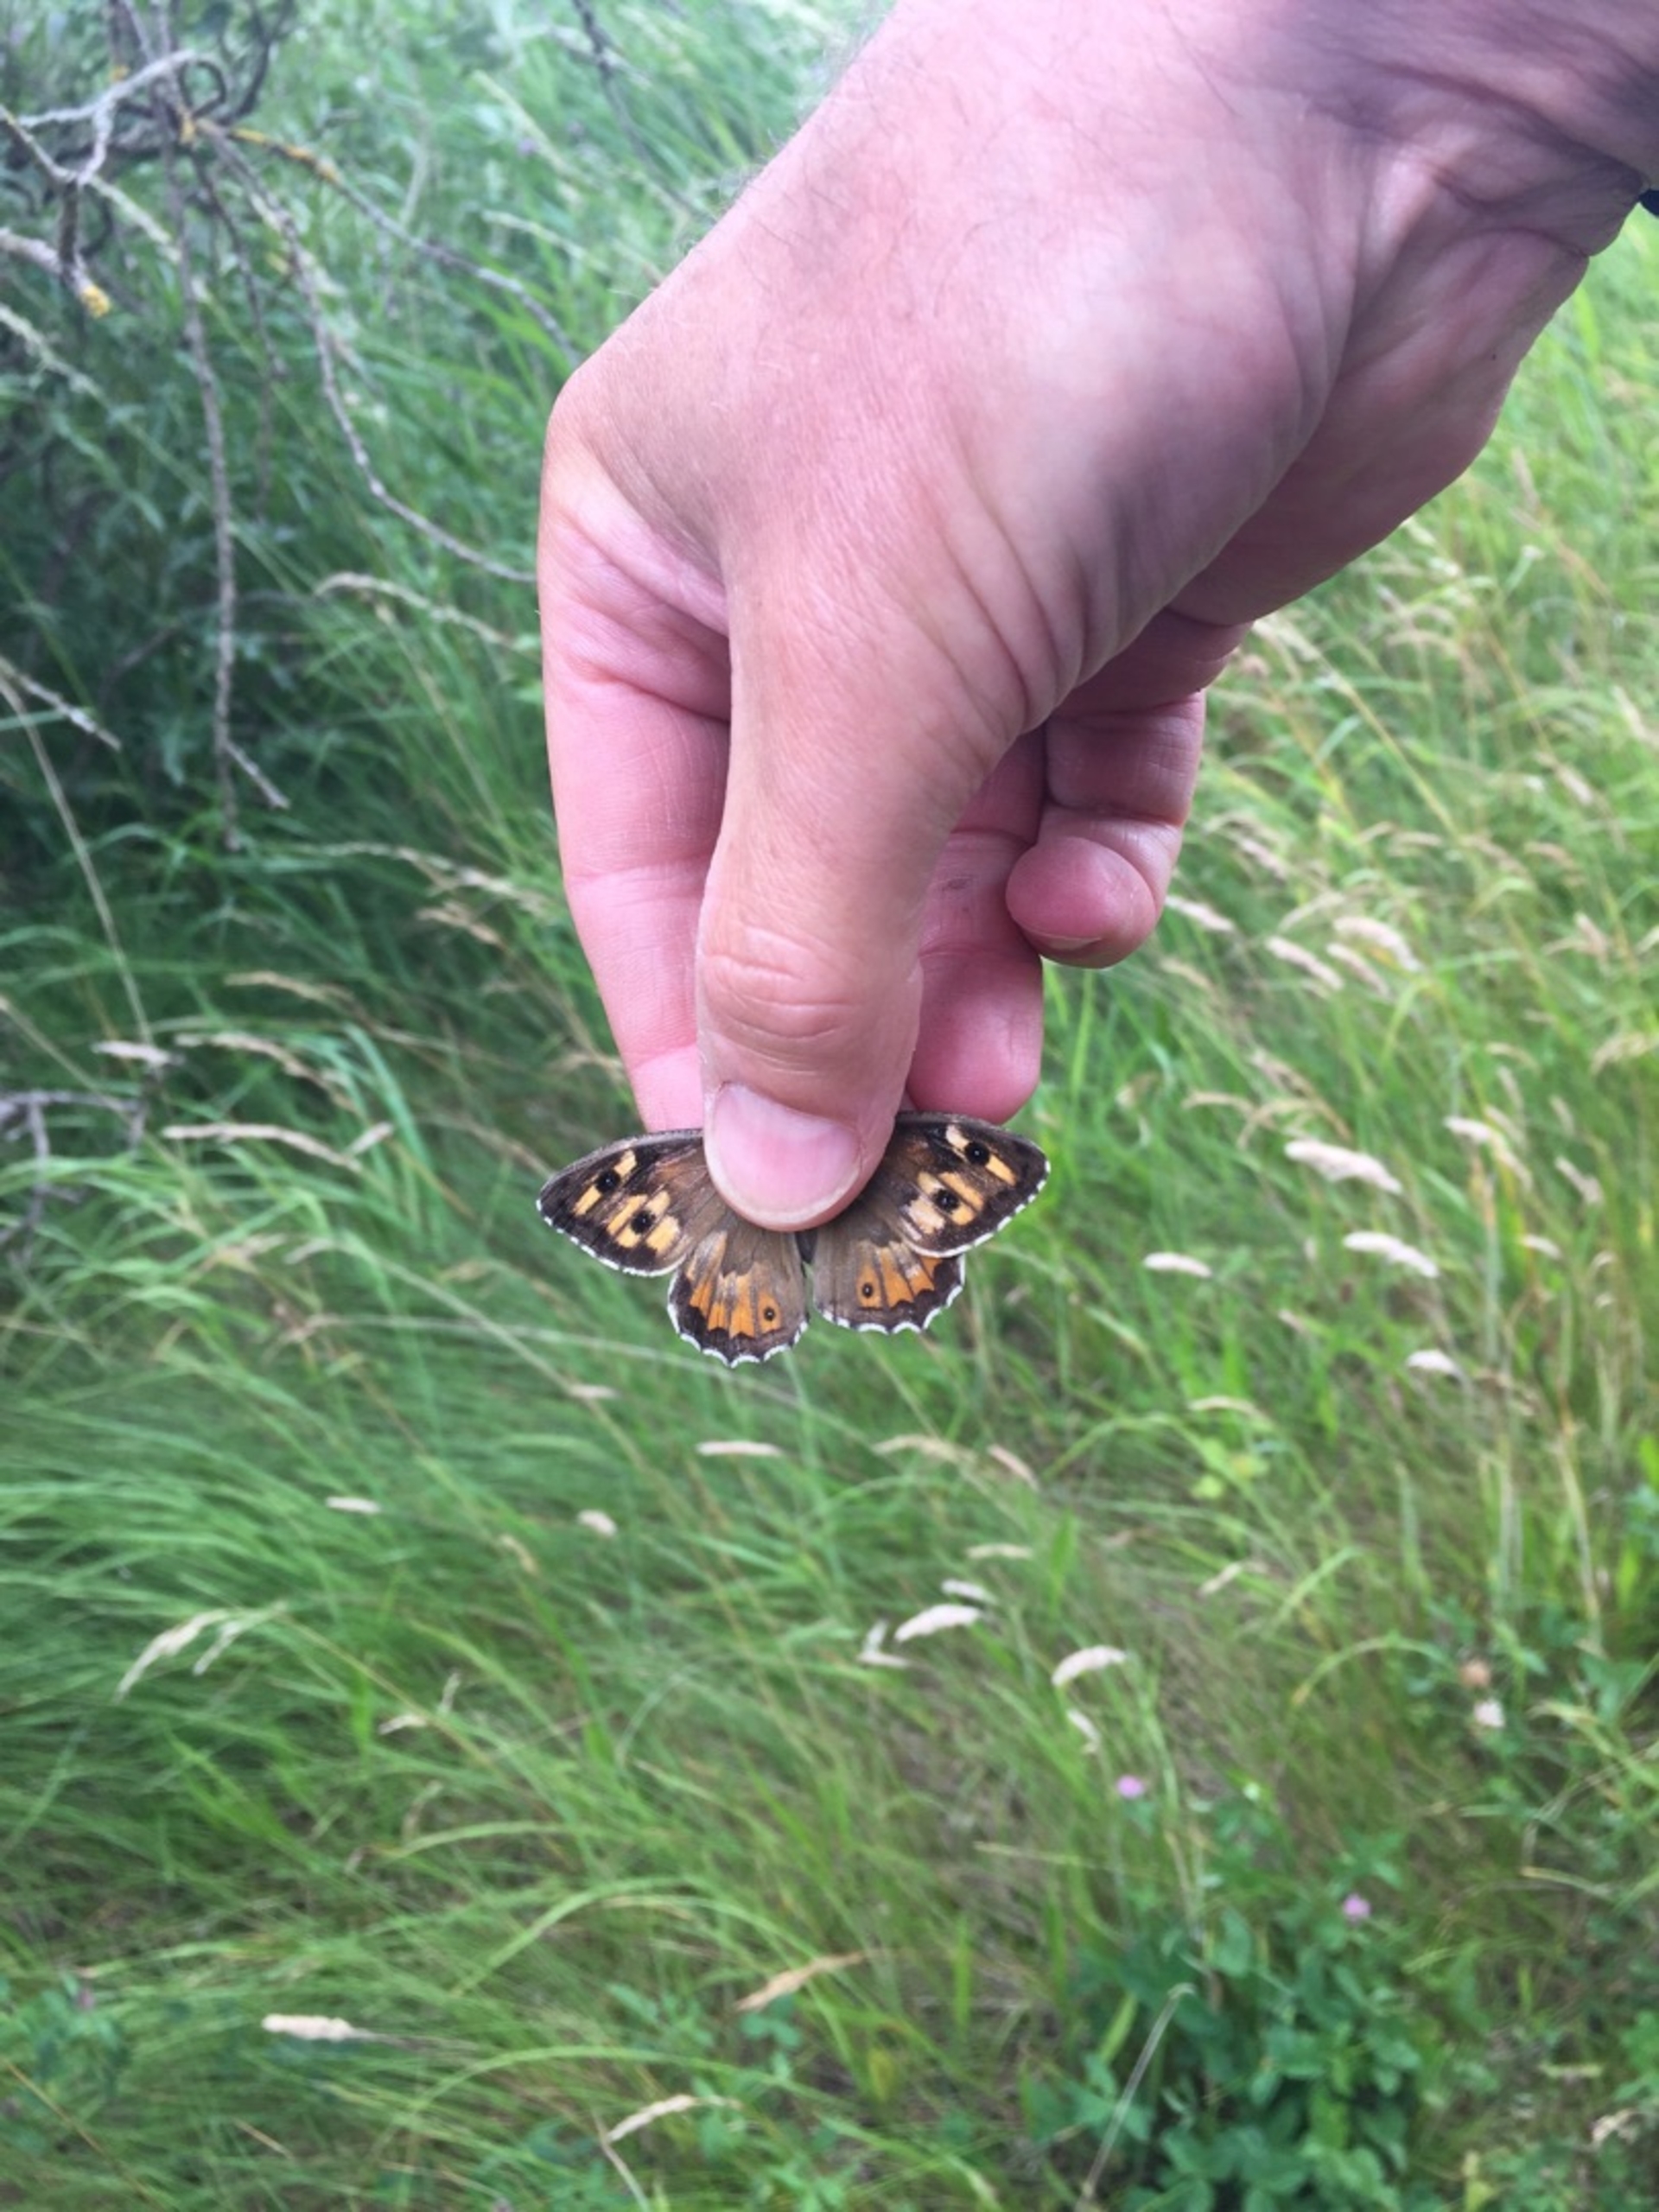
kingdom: Animalia
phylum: Arthropoda
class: Insecta
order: Lepidoptera
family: Nymphalidae
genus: Hipparchia
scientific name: Hipparchia semele
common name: Sandrandøje
